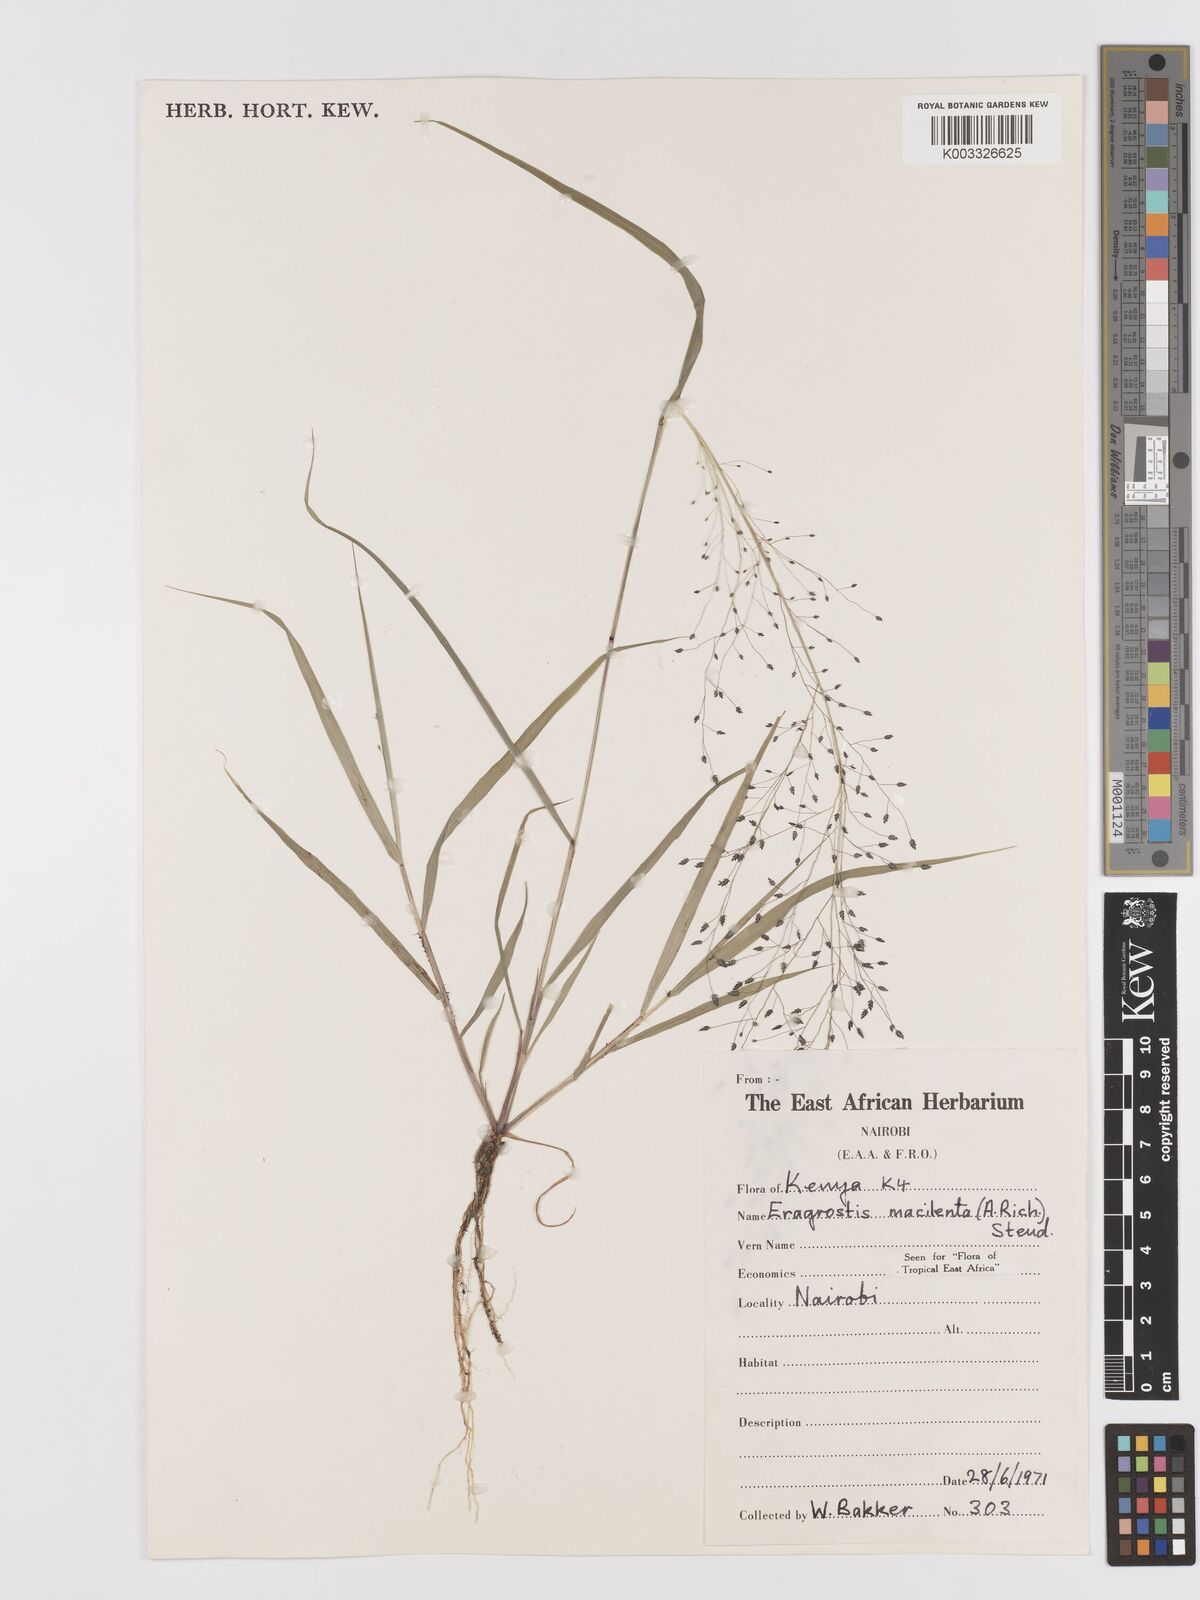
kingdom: Plantae
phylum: Tracheophyta
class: Liliopsida
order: Poales
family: Poaceae
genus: Eragrostis
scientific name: Eragrostis macilenta
